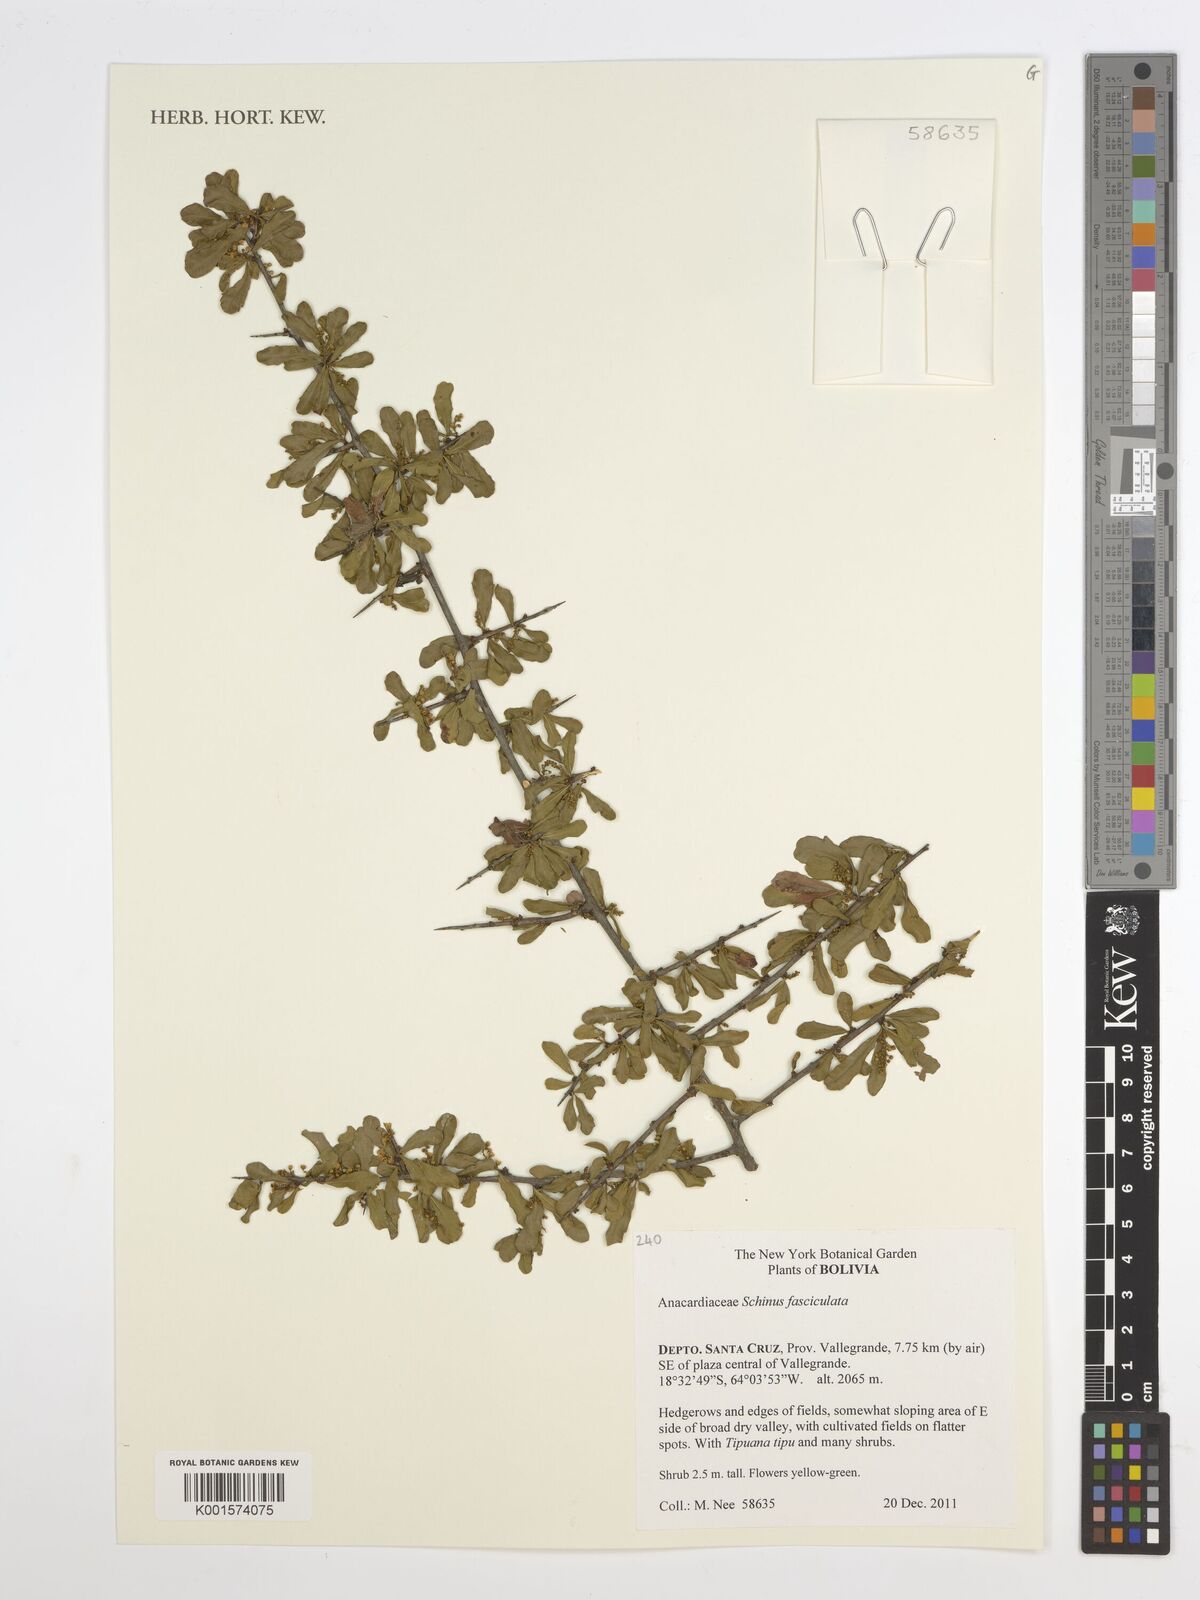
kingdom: Plantae
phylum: Tracheophyta
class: Magnoliopsida
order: Sapindales
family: Anacardiaceae
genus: Schinus
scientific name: Schinus fasciculata
